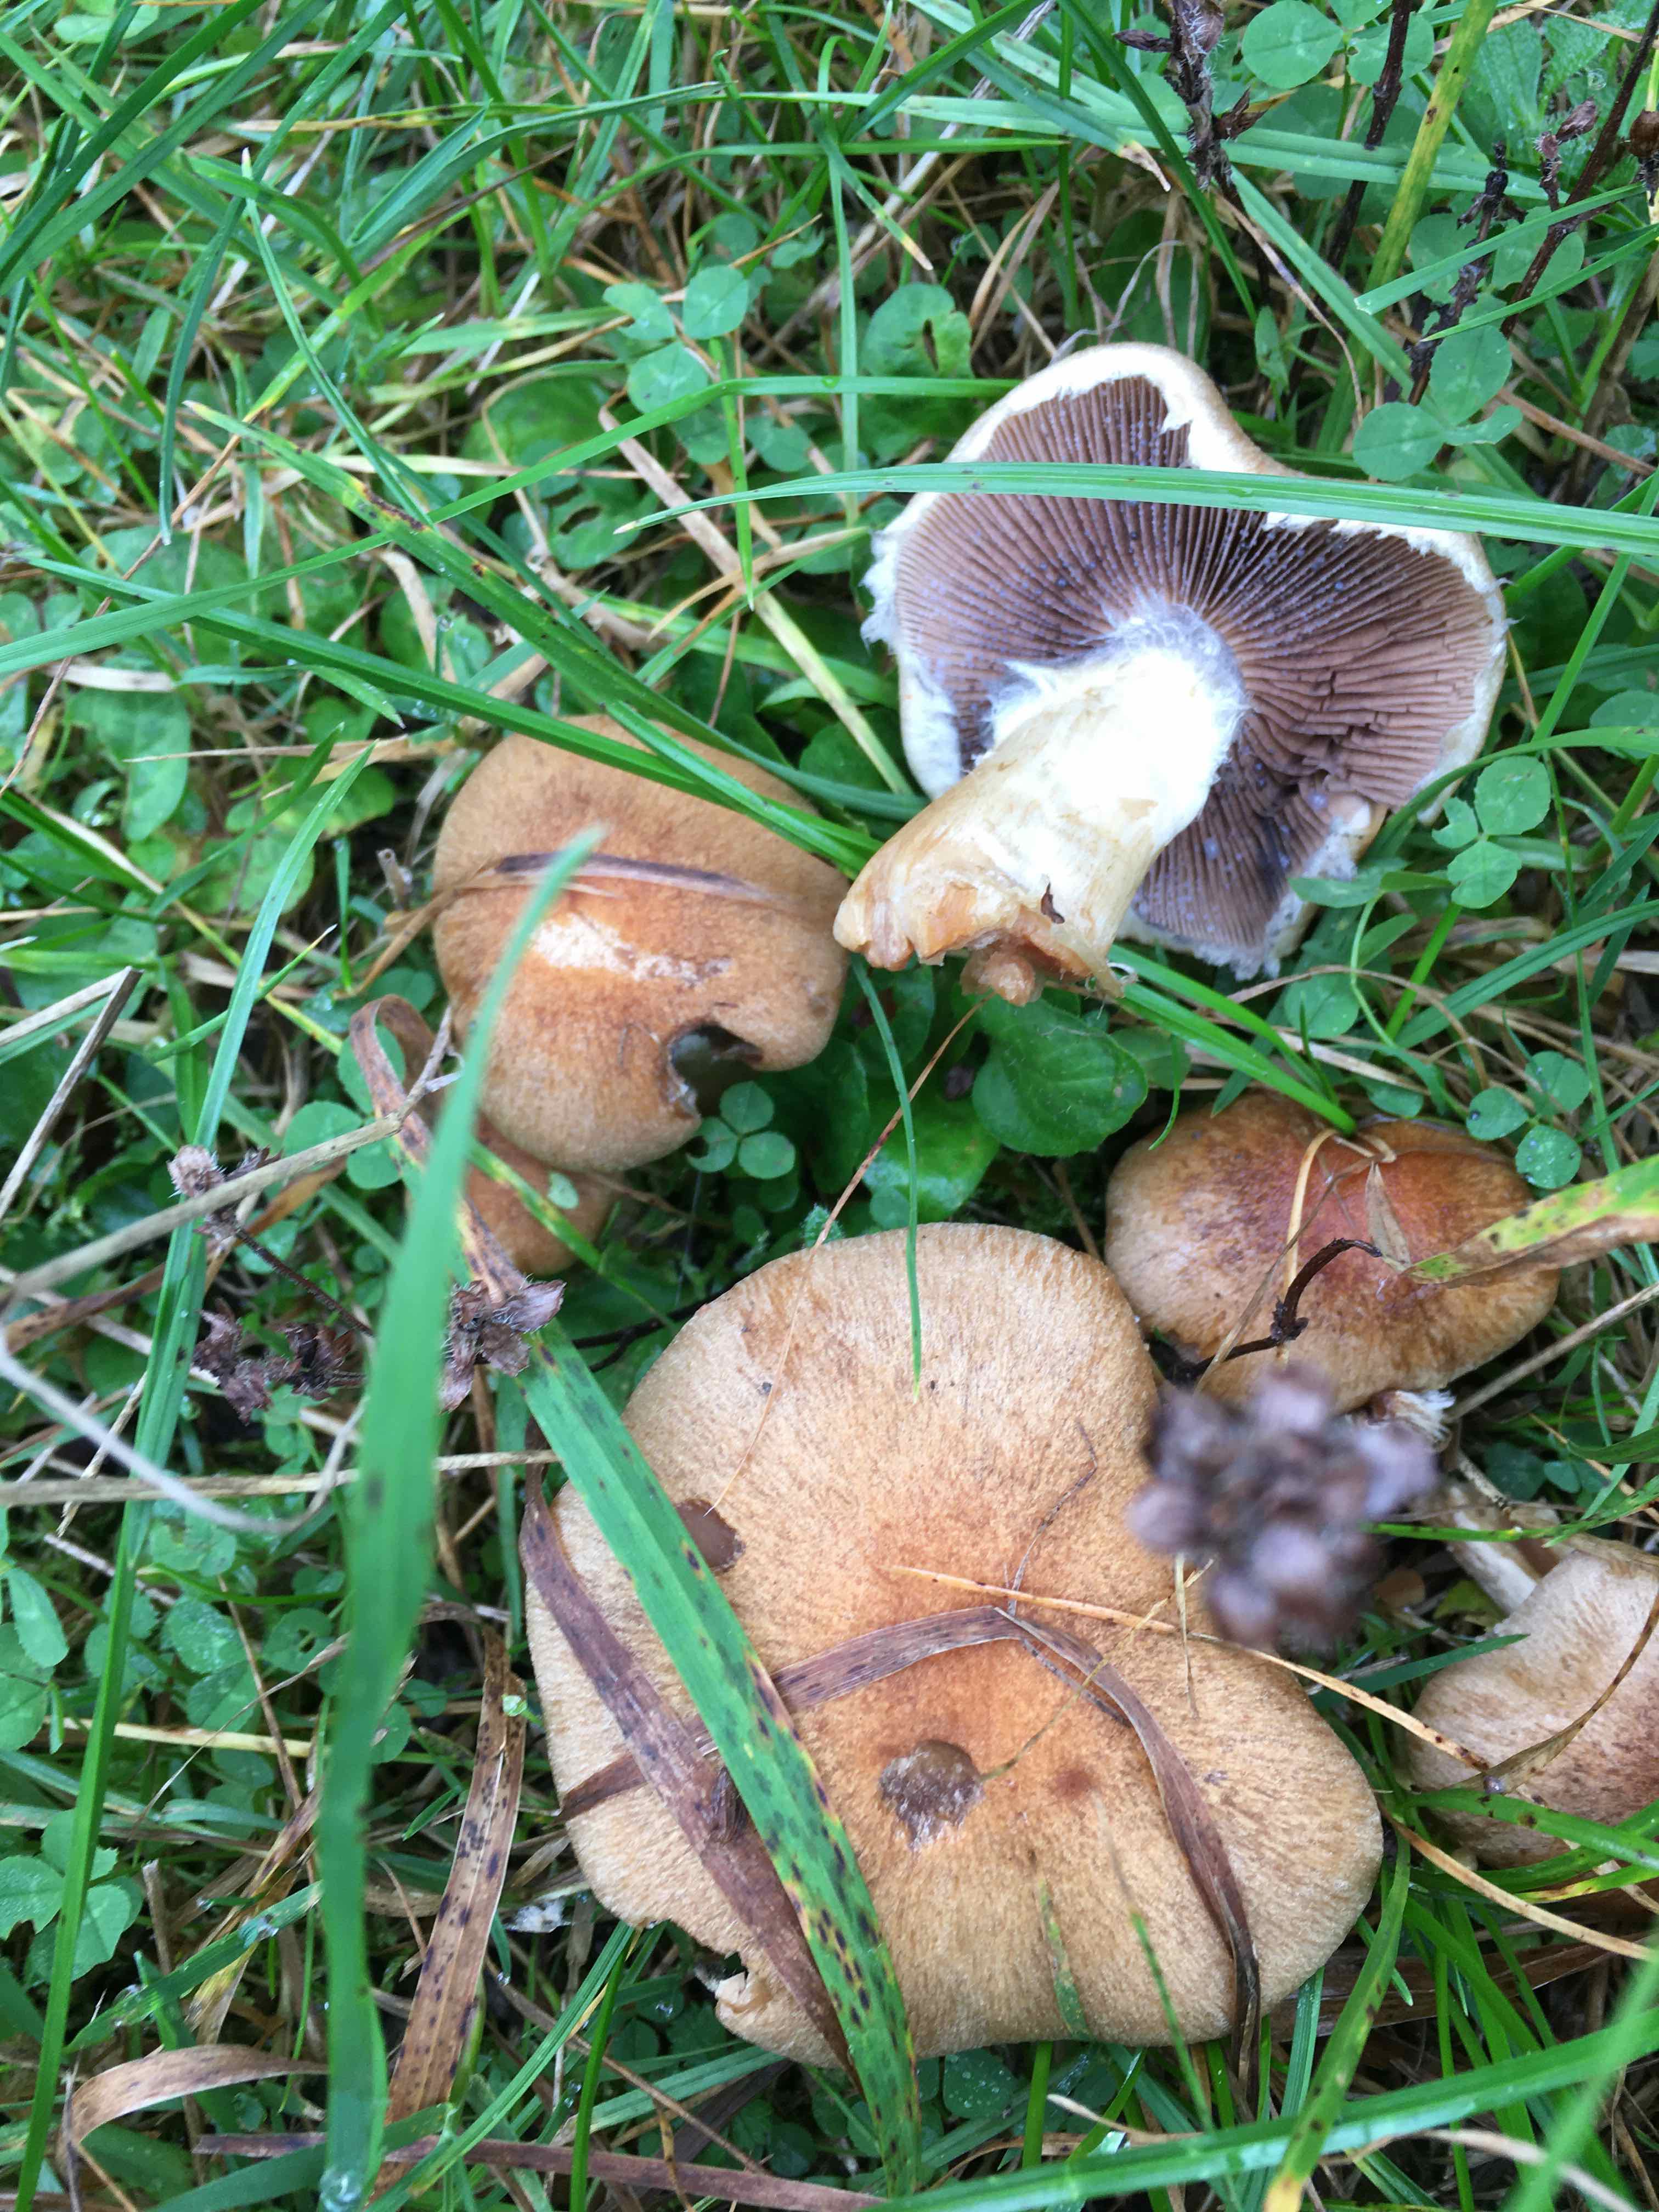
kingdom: Fungi
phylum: Basidiomycota
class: Agaricomycetes
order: Agaricales
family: Psathyrellaceae
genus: Lacrymaria
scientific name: Lacrymaria lacrymabunda
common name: grædende mørkhat
